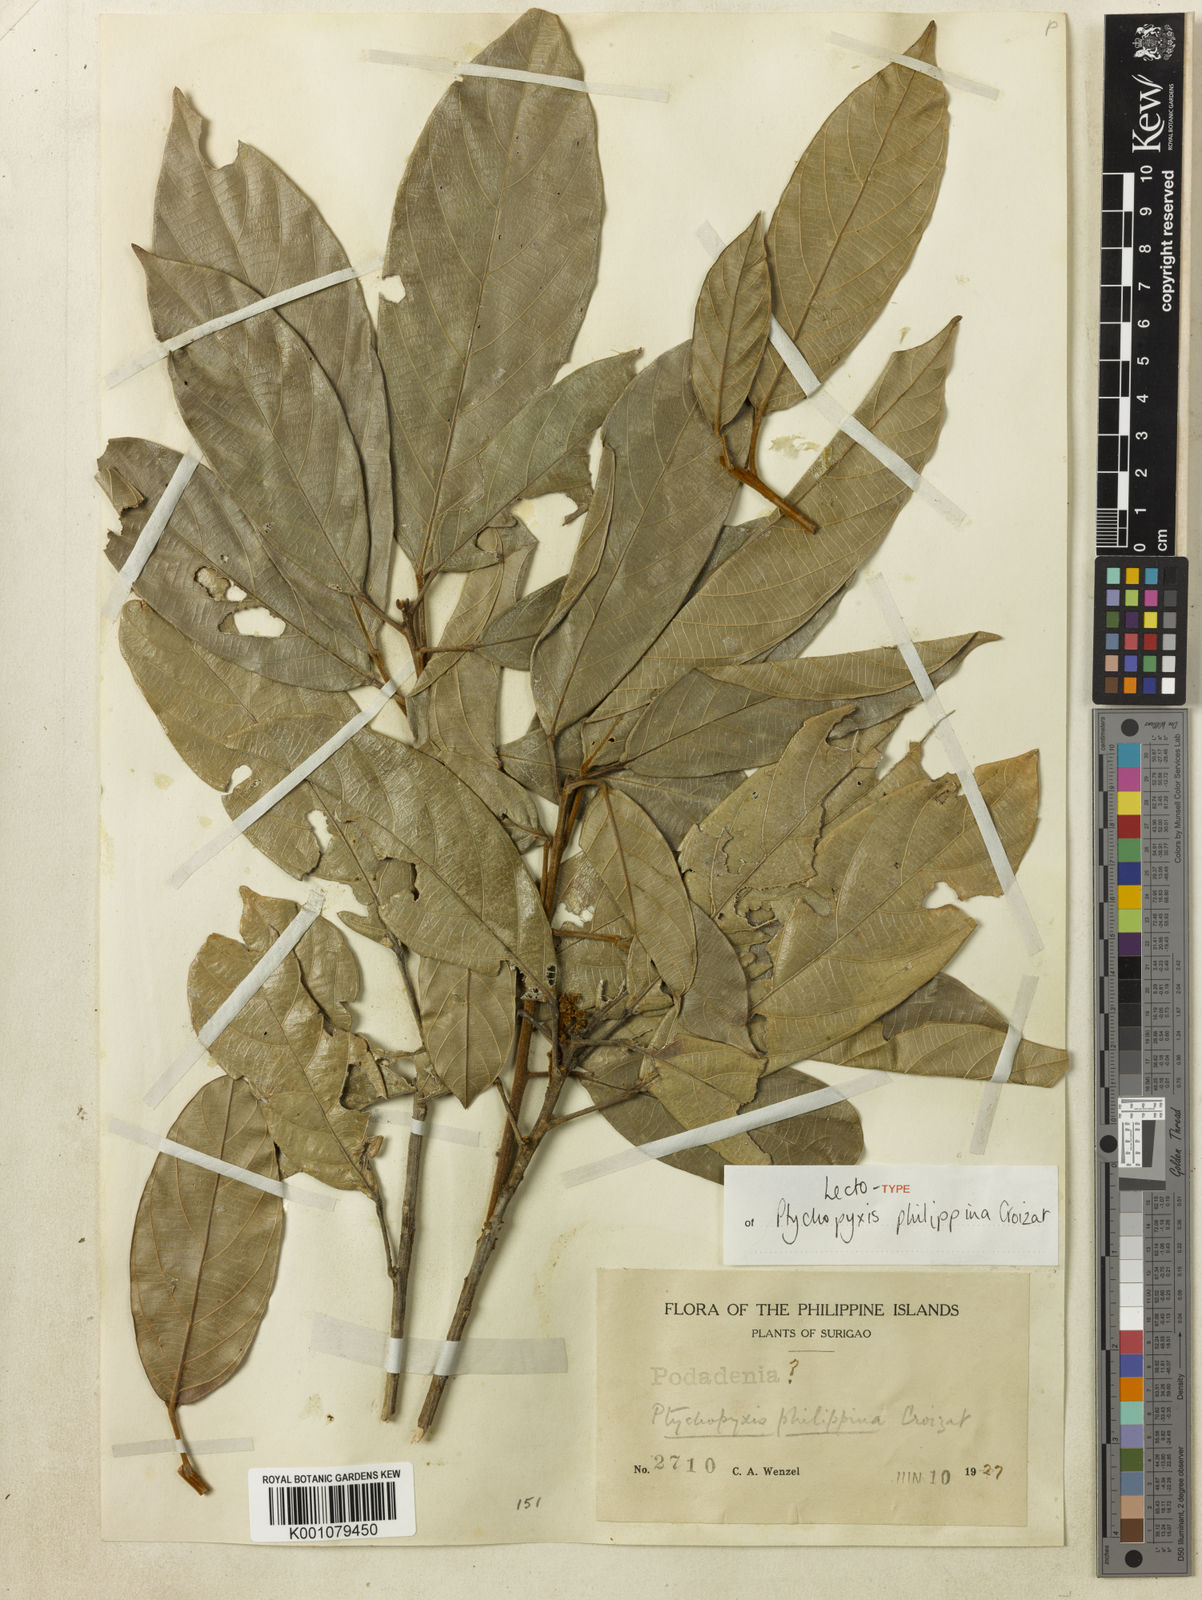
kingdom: Plantae
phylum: Tracheophyta
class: Magnoliopsida
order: Malpighiales
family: Euphorbiaceae
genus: Ptychopyxis
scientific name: Ptychopyxis bacciformis
